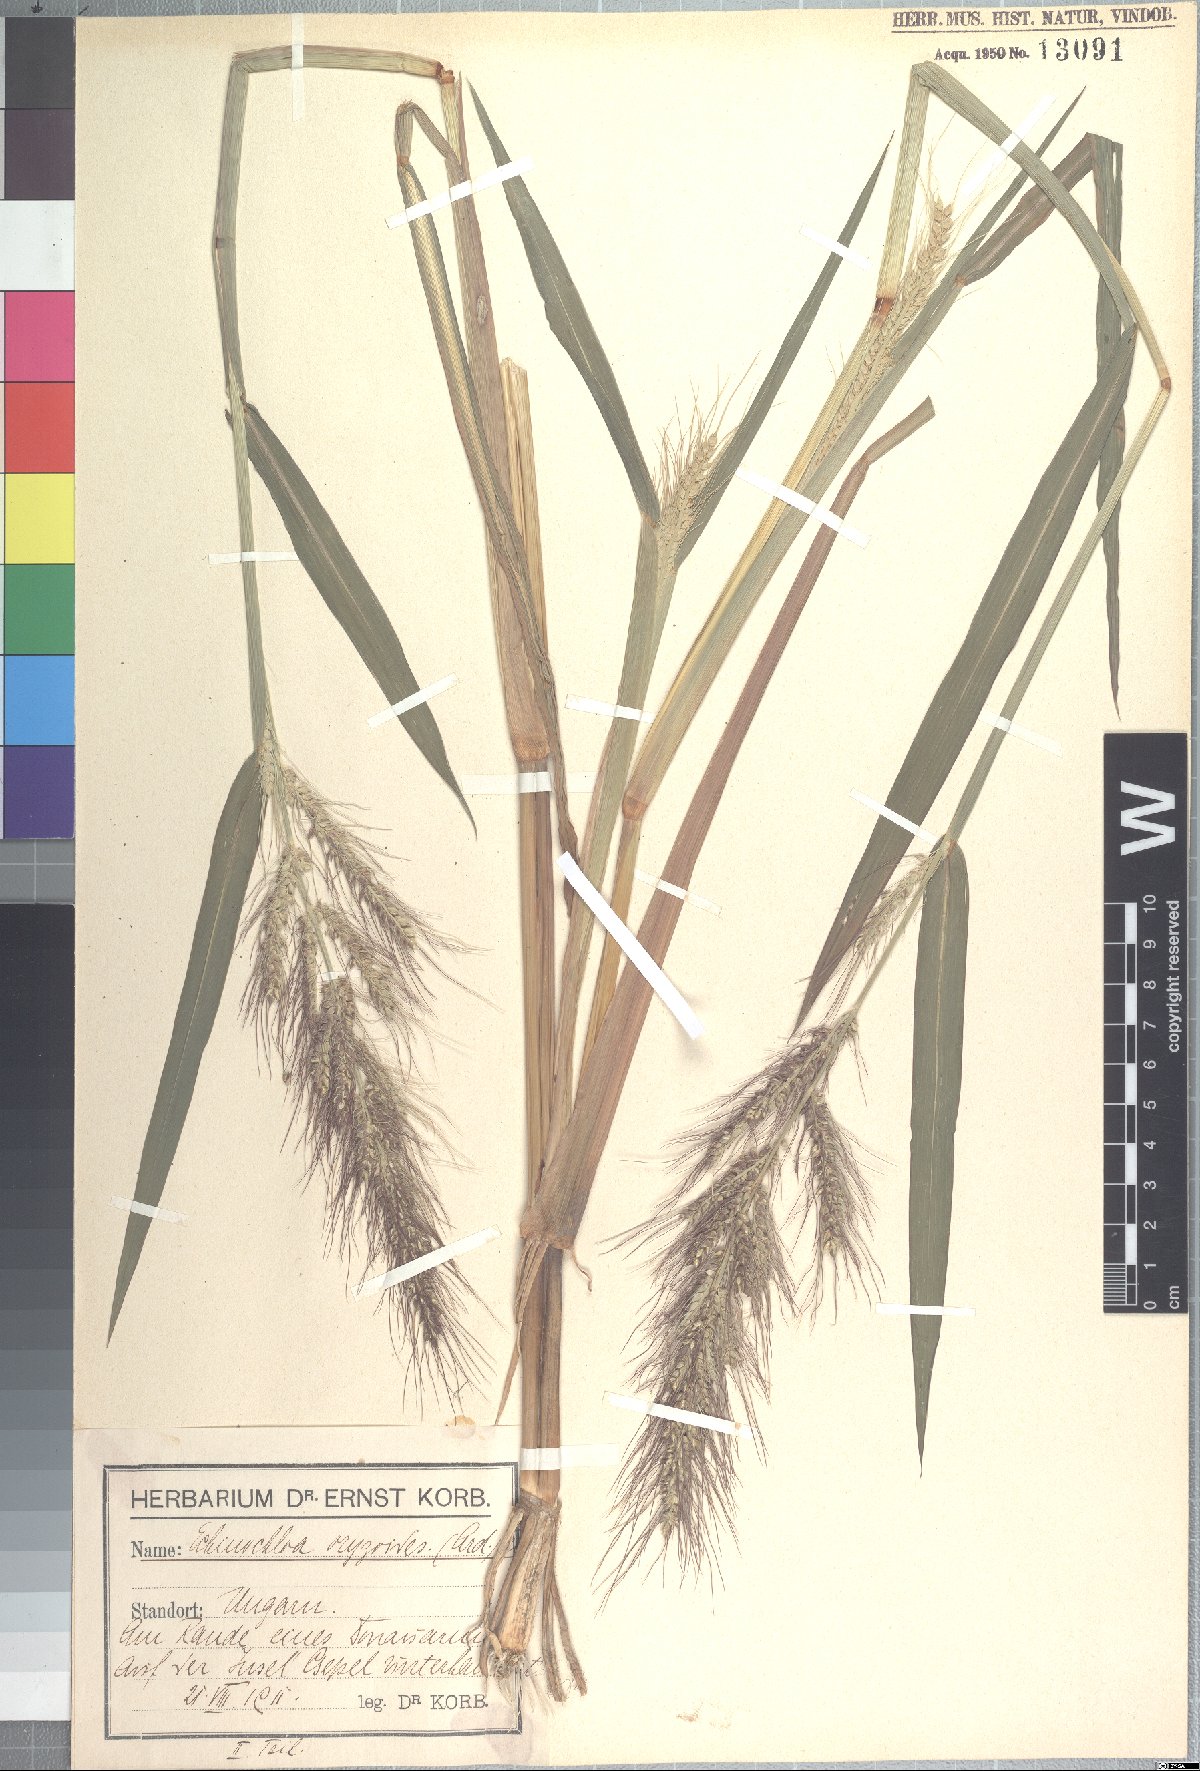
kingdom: Plantae
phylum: Tracheophyta
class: Liliopsida
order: Poales
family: Poaceae
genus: Echinochloa
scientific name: Echinochloa oryzoides
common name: Early water grass
